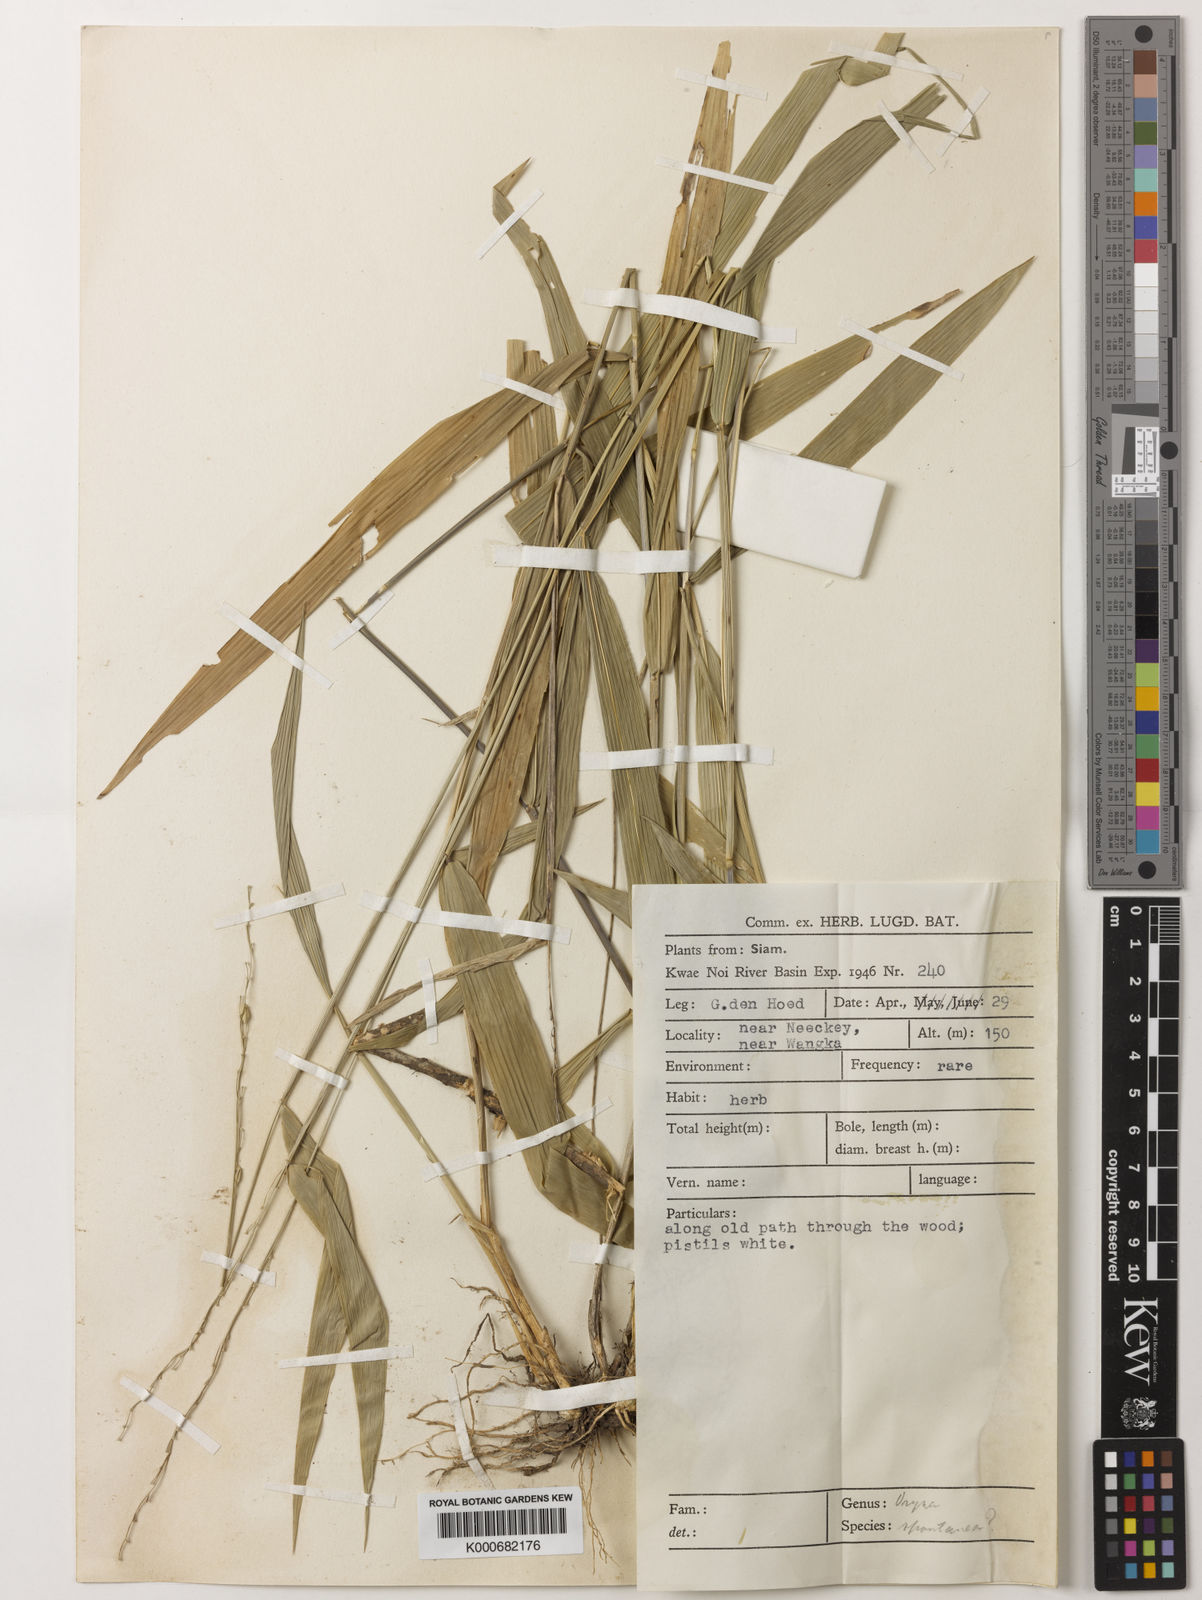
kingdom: Plantae
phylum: Tracheophyta
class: Liliopsida
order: Poales
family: Poaceae
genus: Oryza
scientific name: Oryza meyeriana
